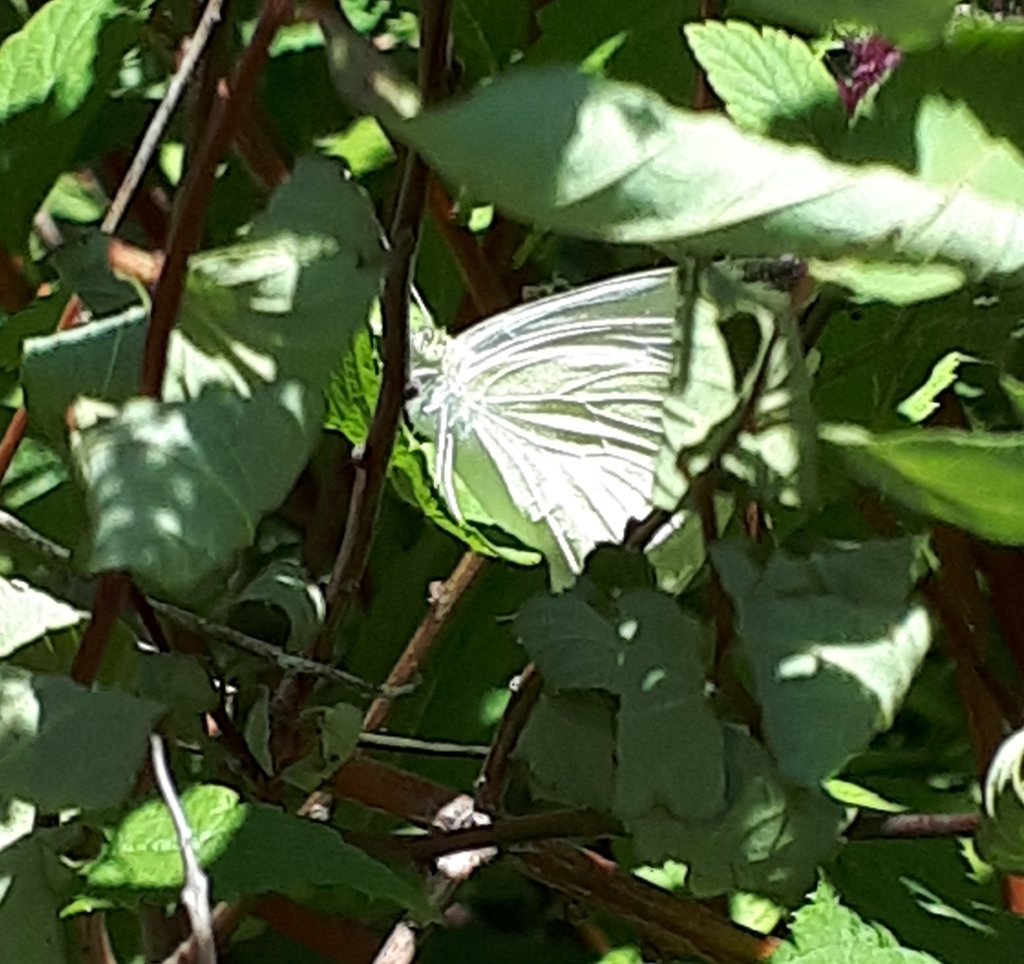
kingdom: Animalia
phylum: Arthropoda
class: Insecta
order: Lepidoptera
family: Pieridae
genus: Pieris
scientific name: Pieris rapae
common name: Cabbage White
